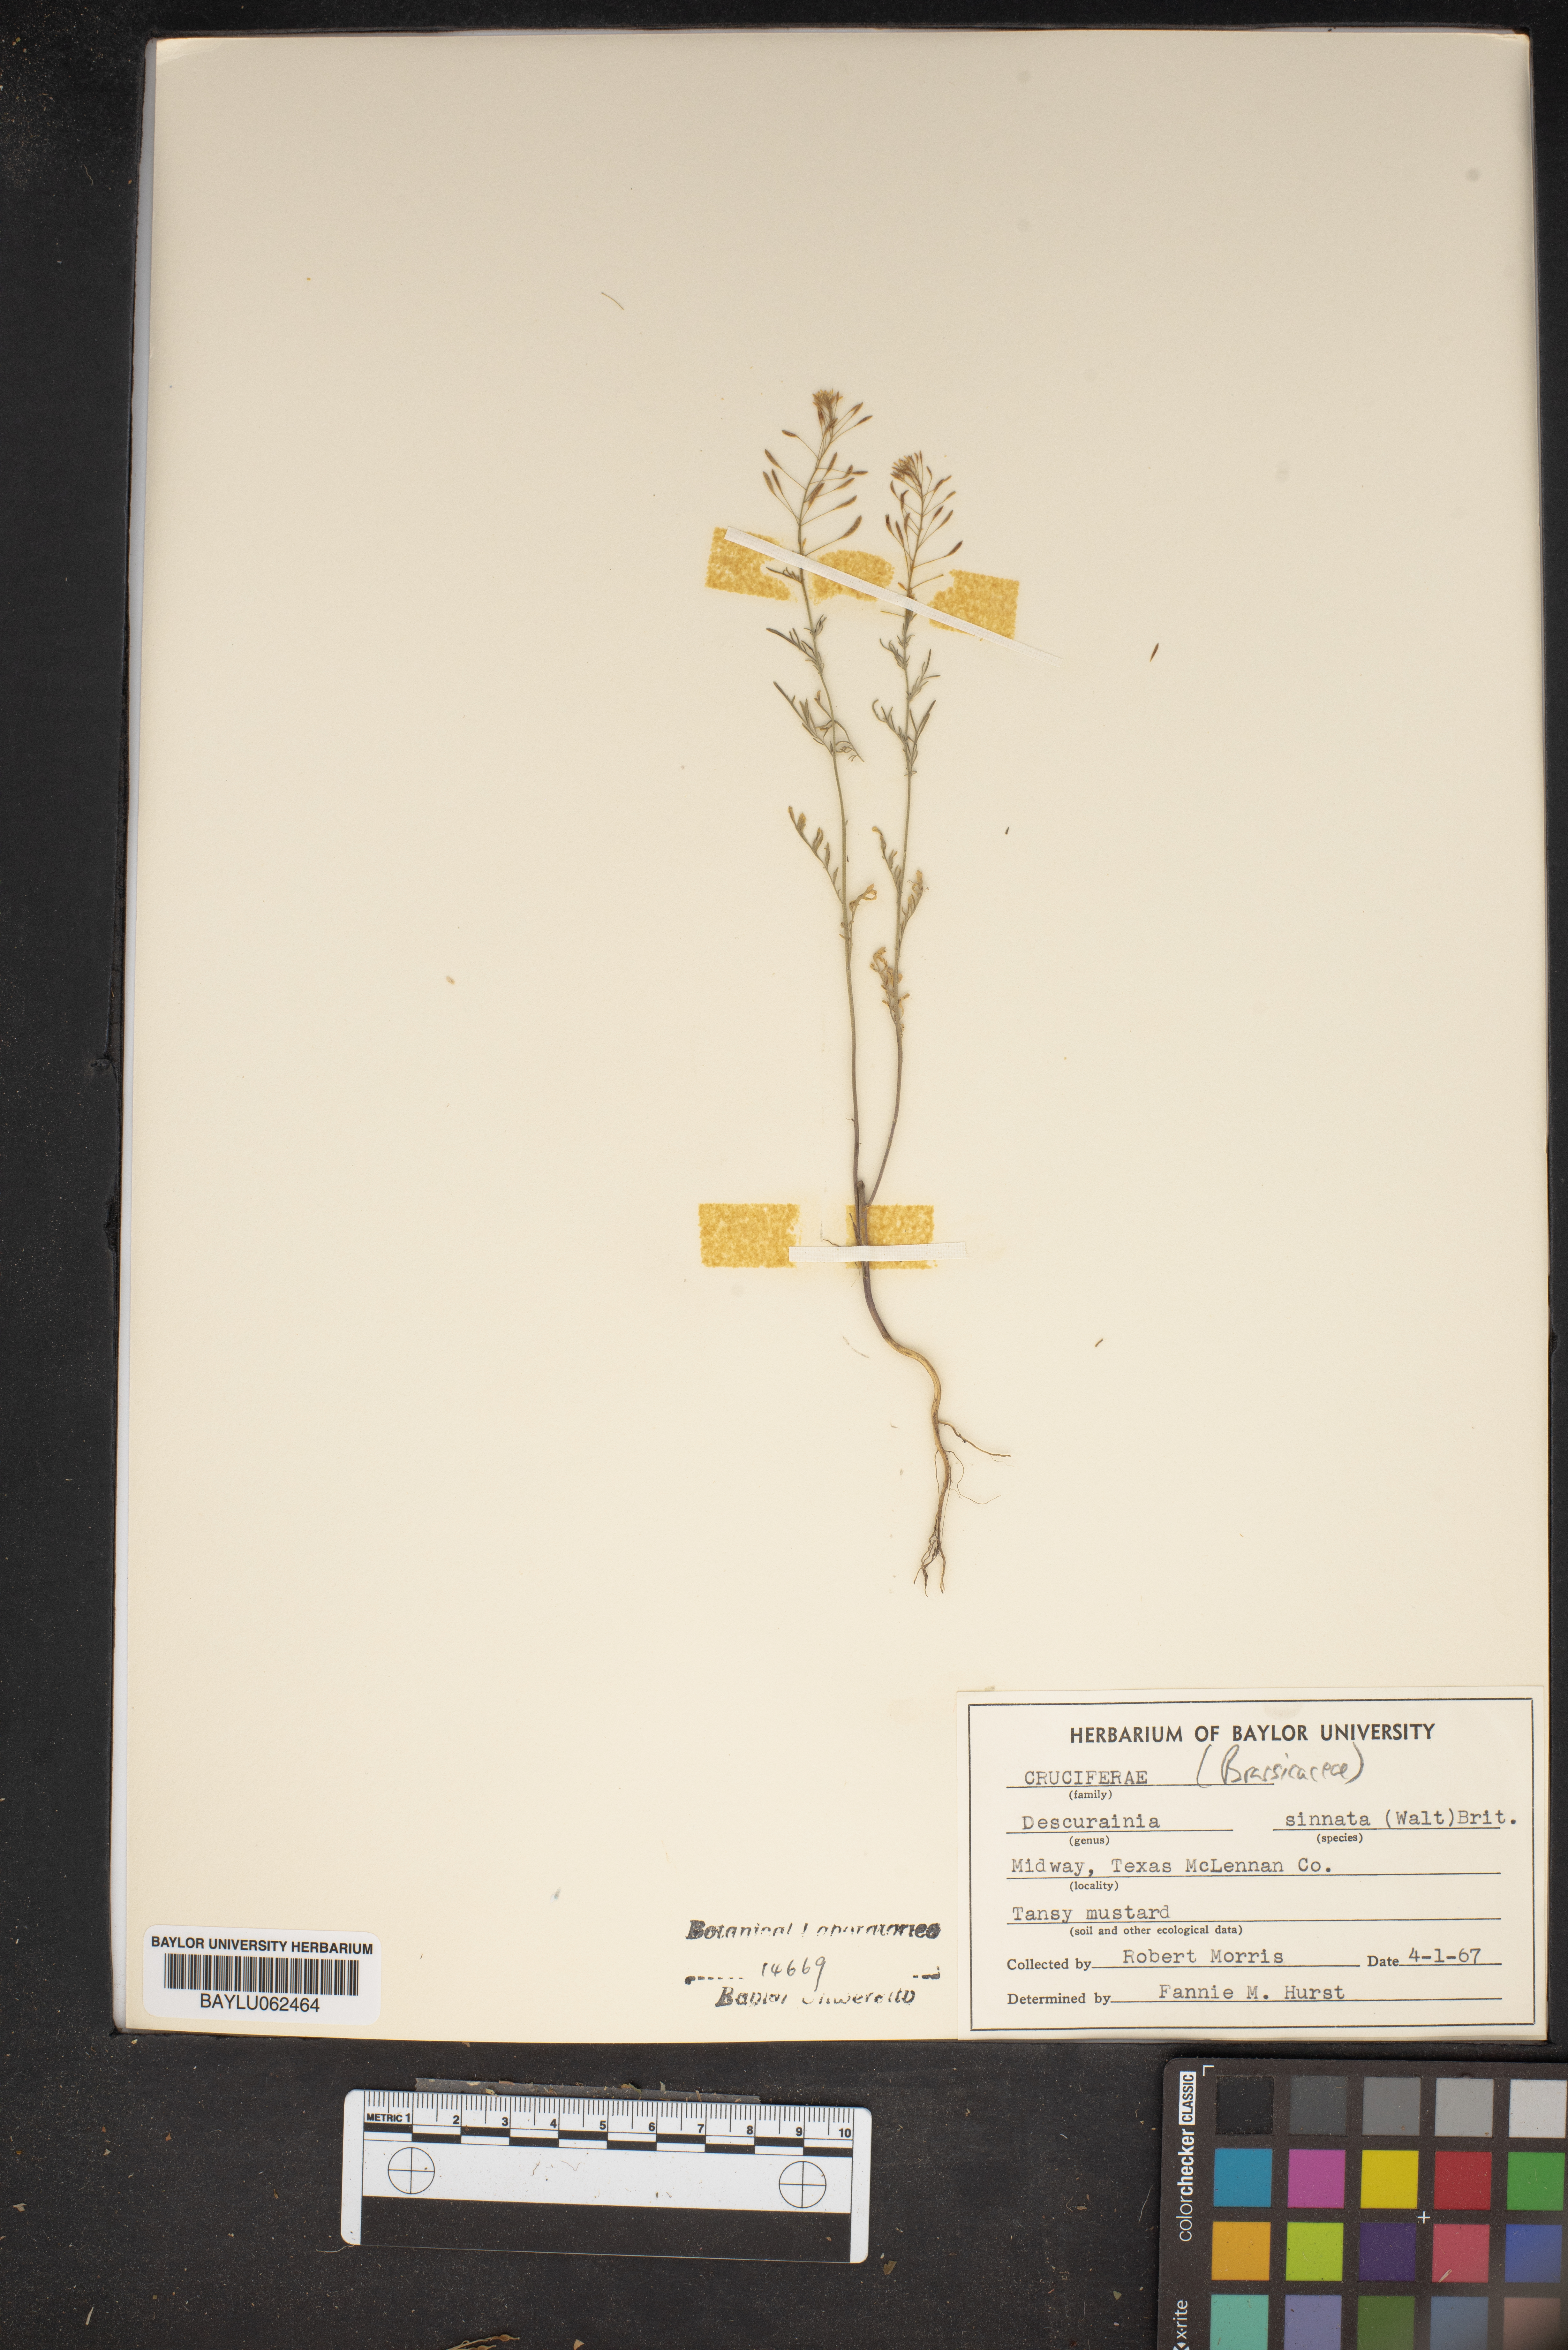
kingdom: Plantae
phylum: Tracheophyta
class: Magnoliopsida
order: Brassicales
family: Brassicaceae
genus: Descurainia
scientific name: Descurainia
